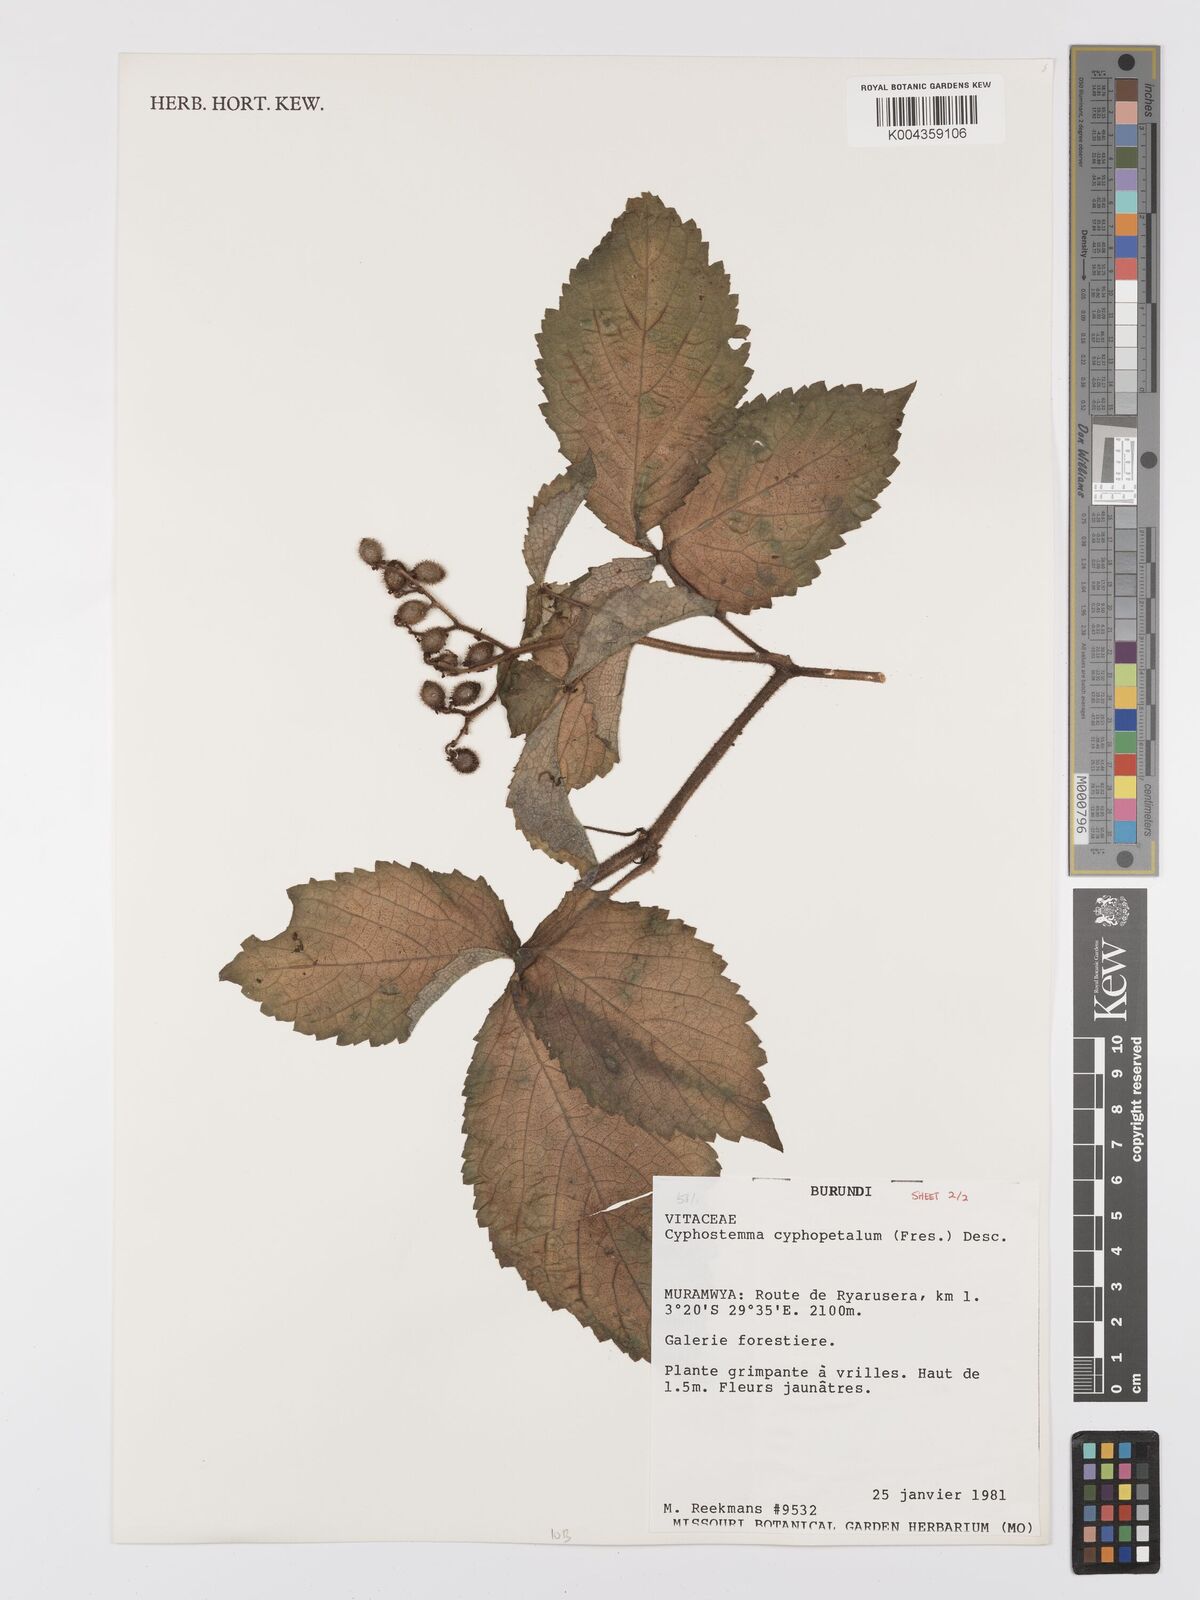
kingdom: Plantae
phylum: Tracheophyta
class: Magnoliopsida
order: Vitales
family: Vitaceae
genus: Cyphostemma
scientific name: Cyphostemma cyphopetalum
